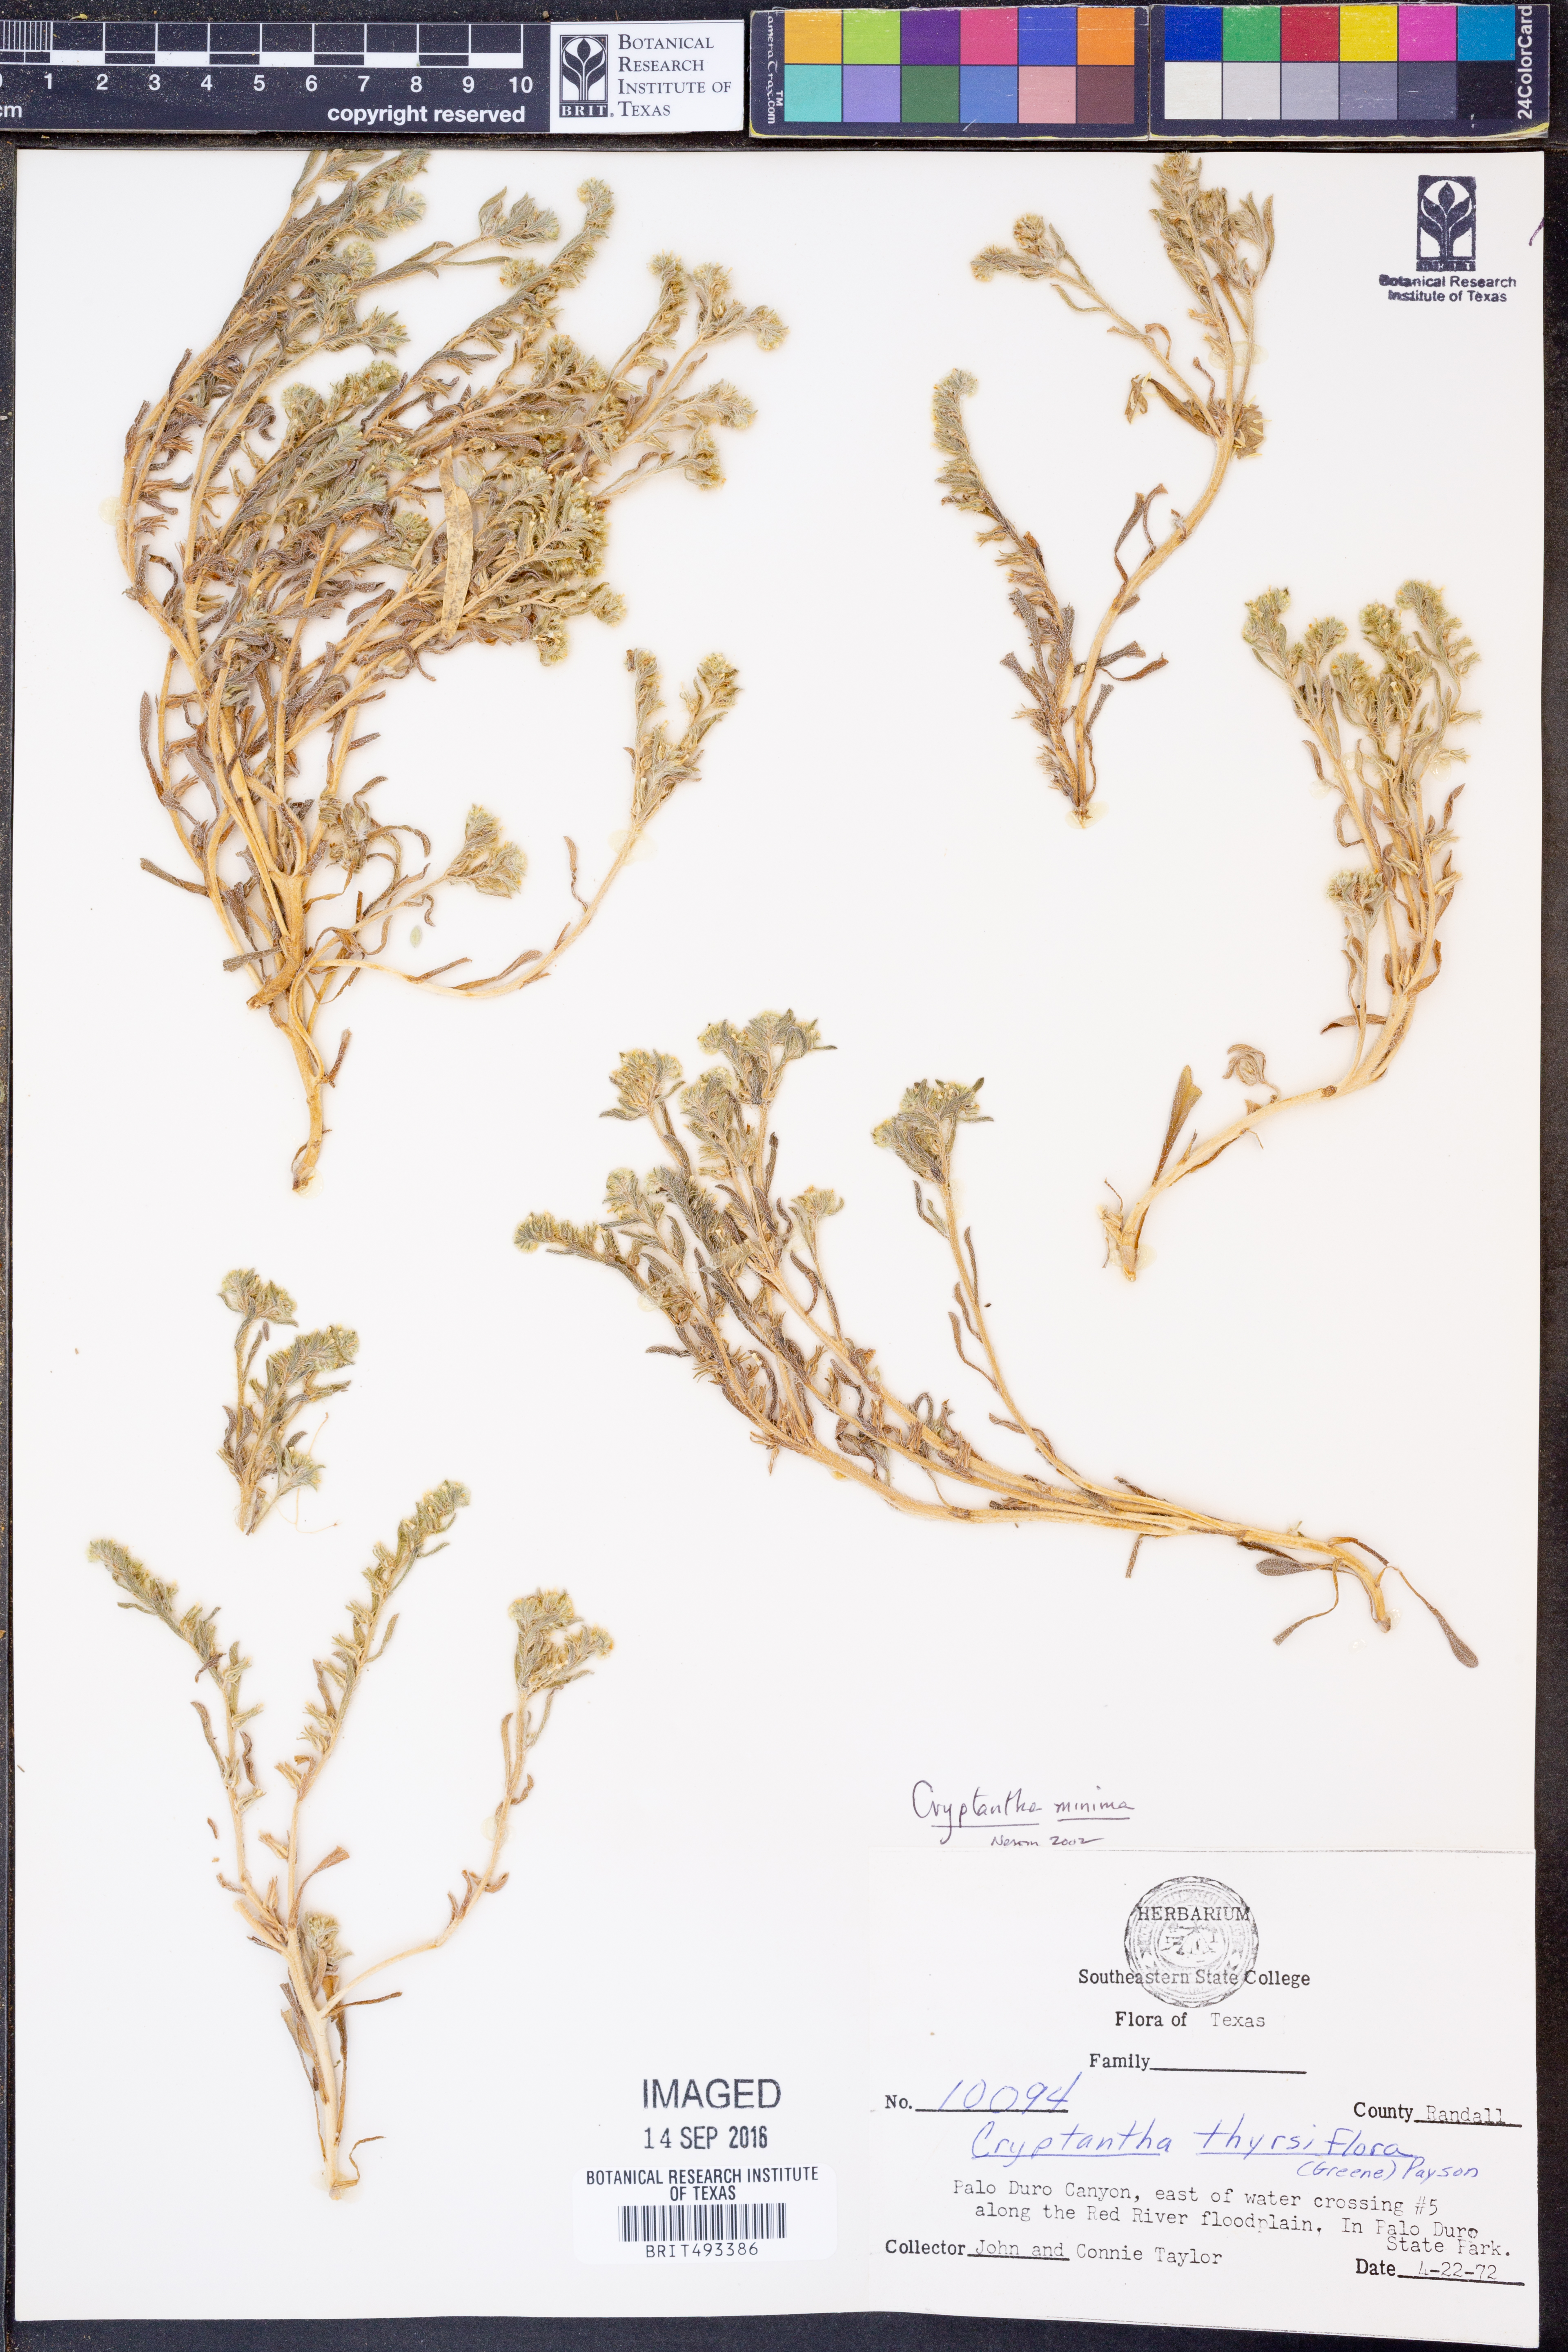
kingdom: Plantae
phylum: Tracheophyta
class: Magnoliopsida
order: Boraginales
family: Boraginaceae
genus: Cryptantha
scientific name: Cryptantha minima
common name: Little cat's-eye
